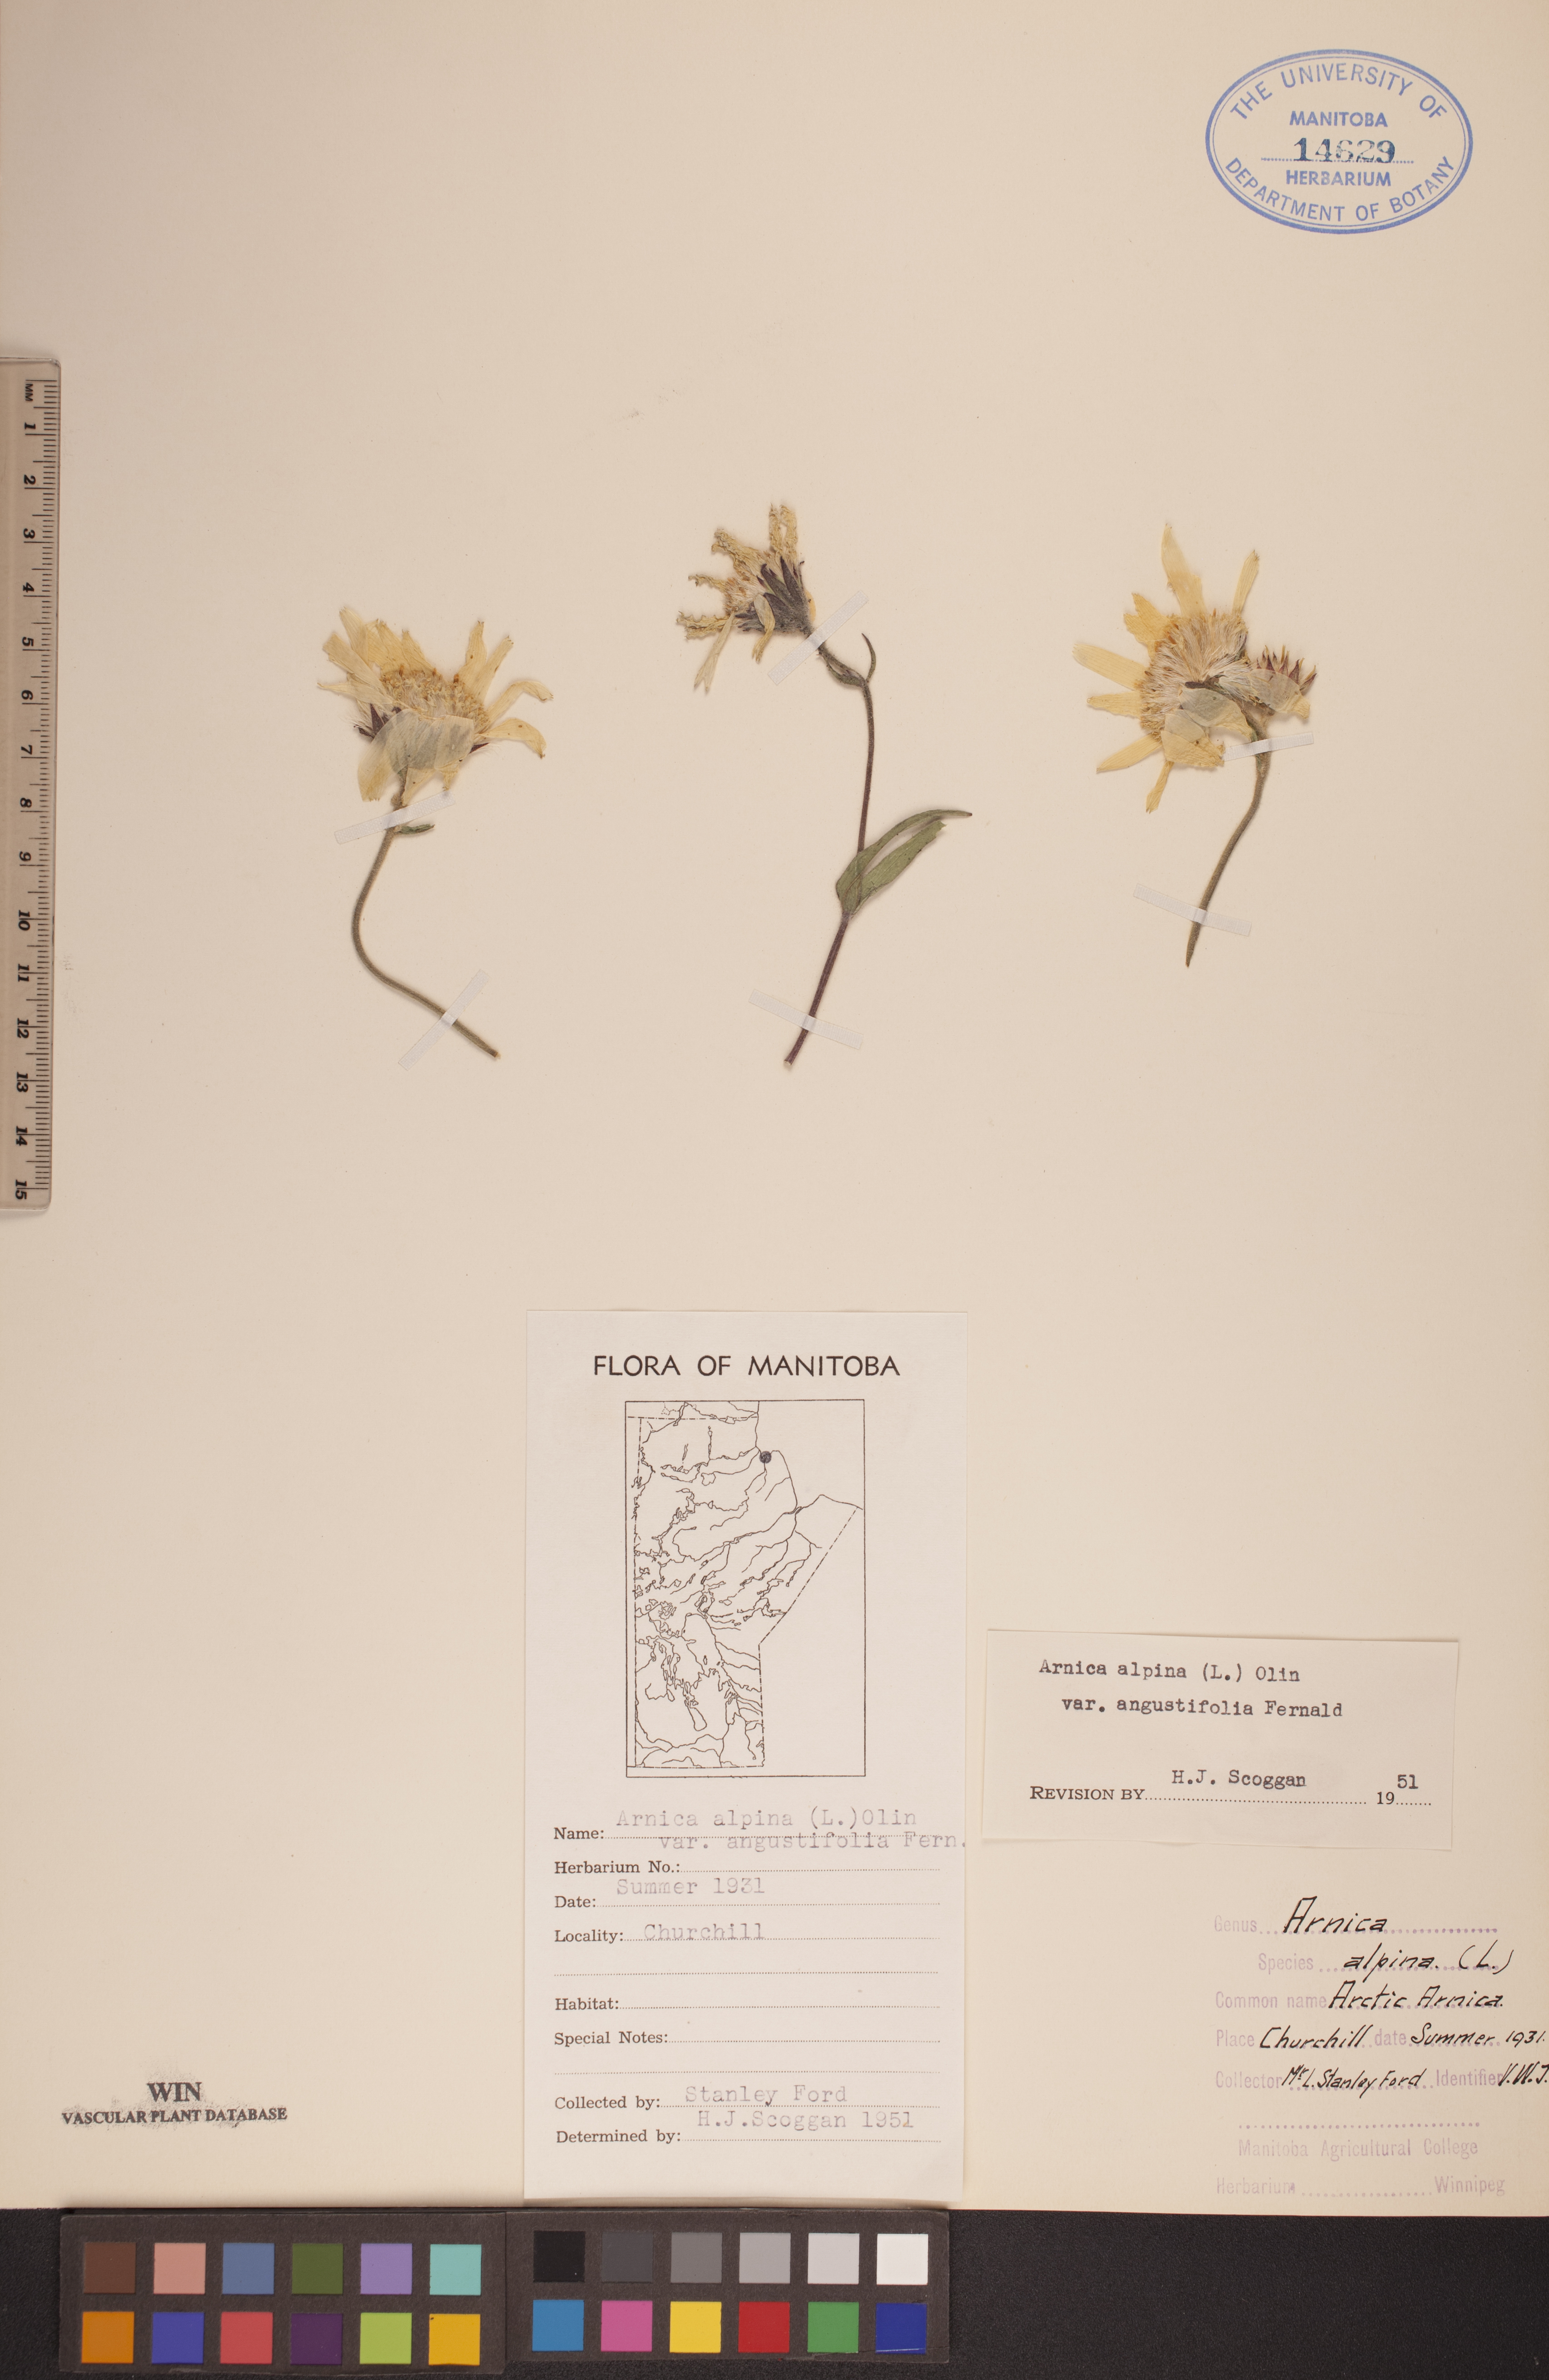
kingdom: Plantae
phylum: Tracheophyta
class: Magnoliopsida
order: Asterales
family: Asteraceae
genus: Arnica
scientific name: Arnica angustifolia
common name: Arctic arnica
